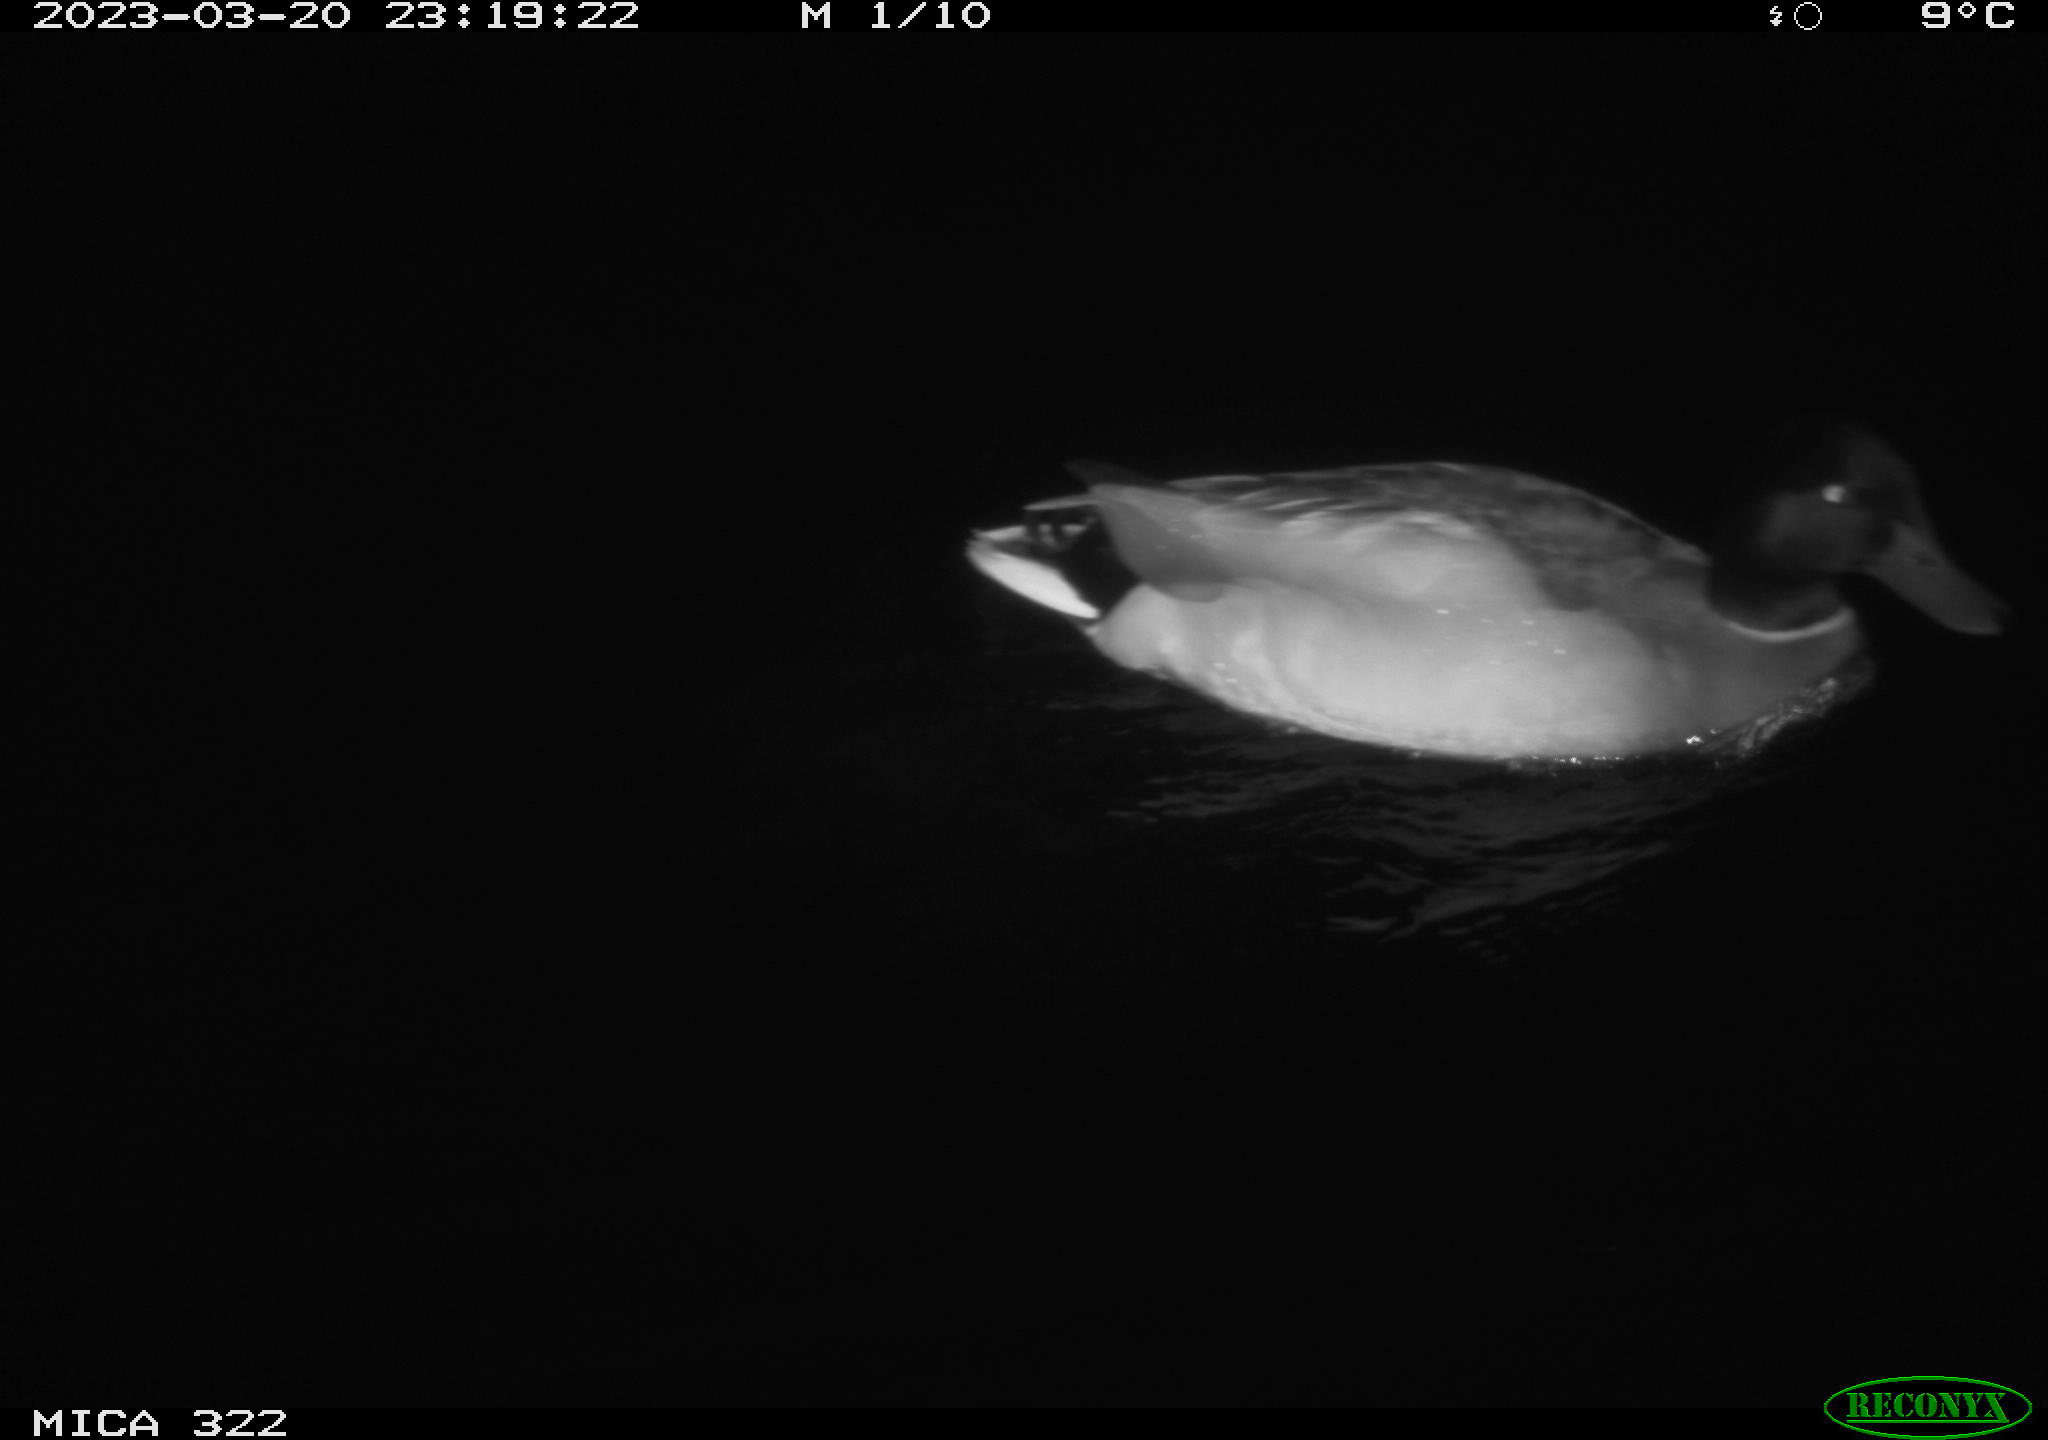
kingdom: Animalia
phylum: Chordata
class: Aves
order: Anseriformes
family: Anatidae
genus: Anas
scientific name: Anas
